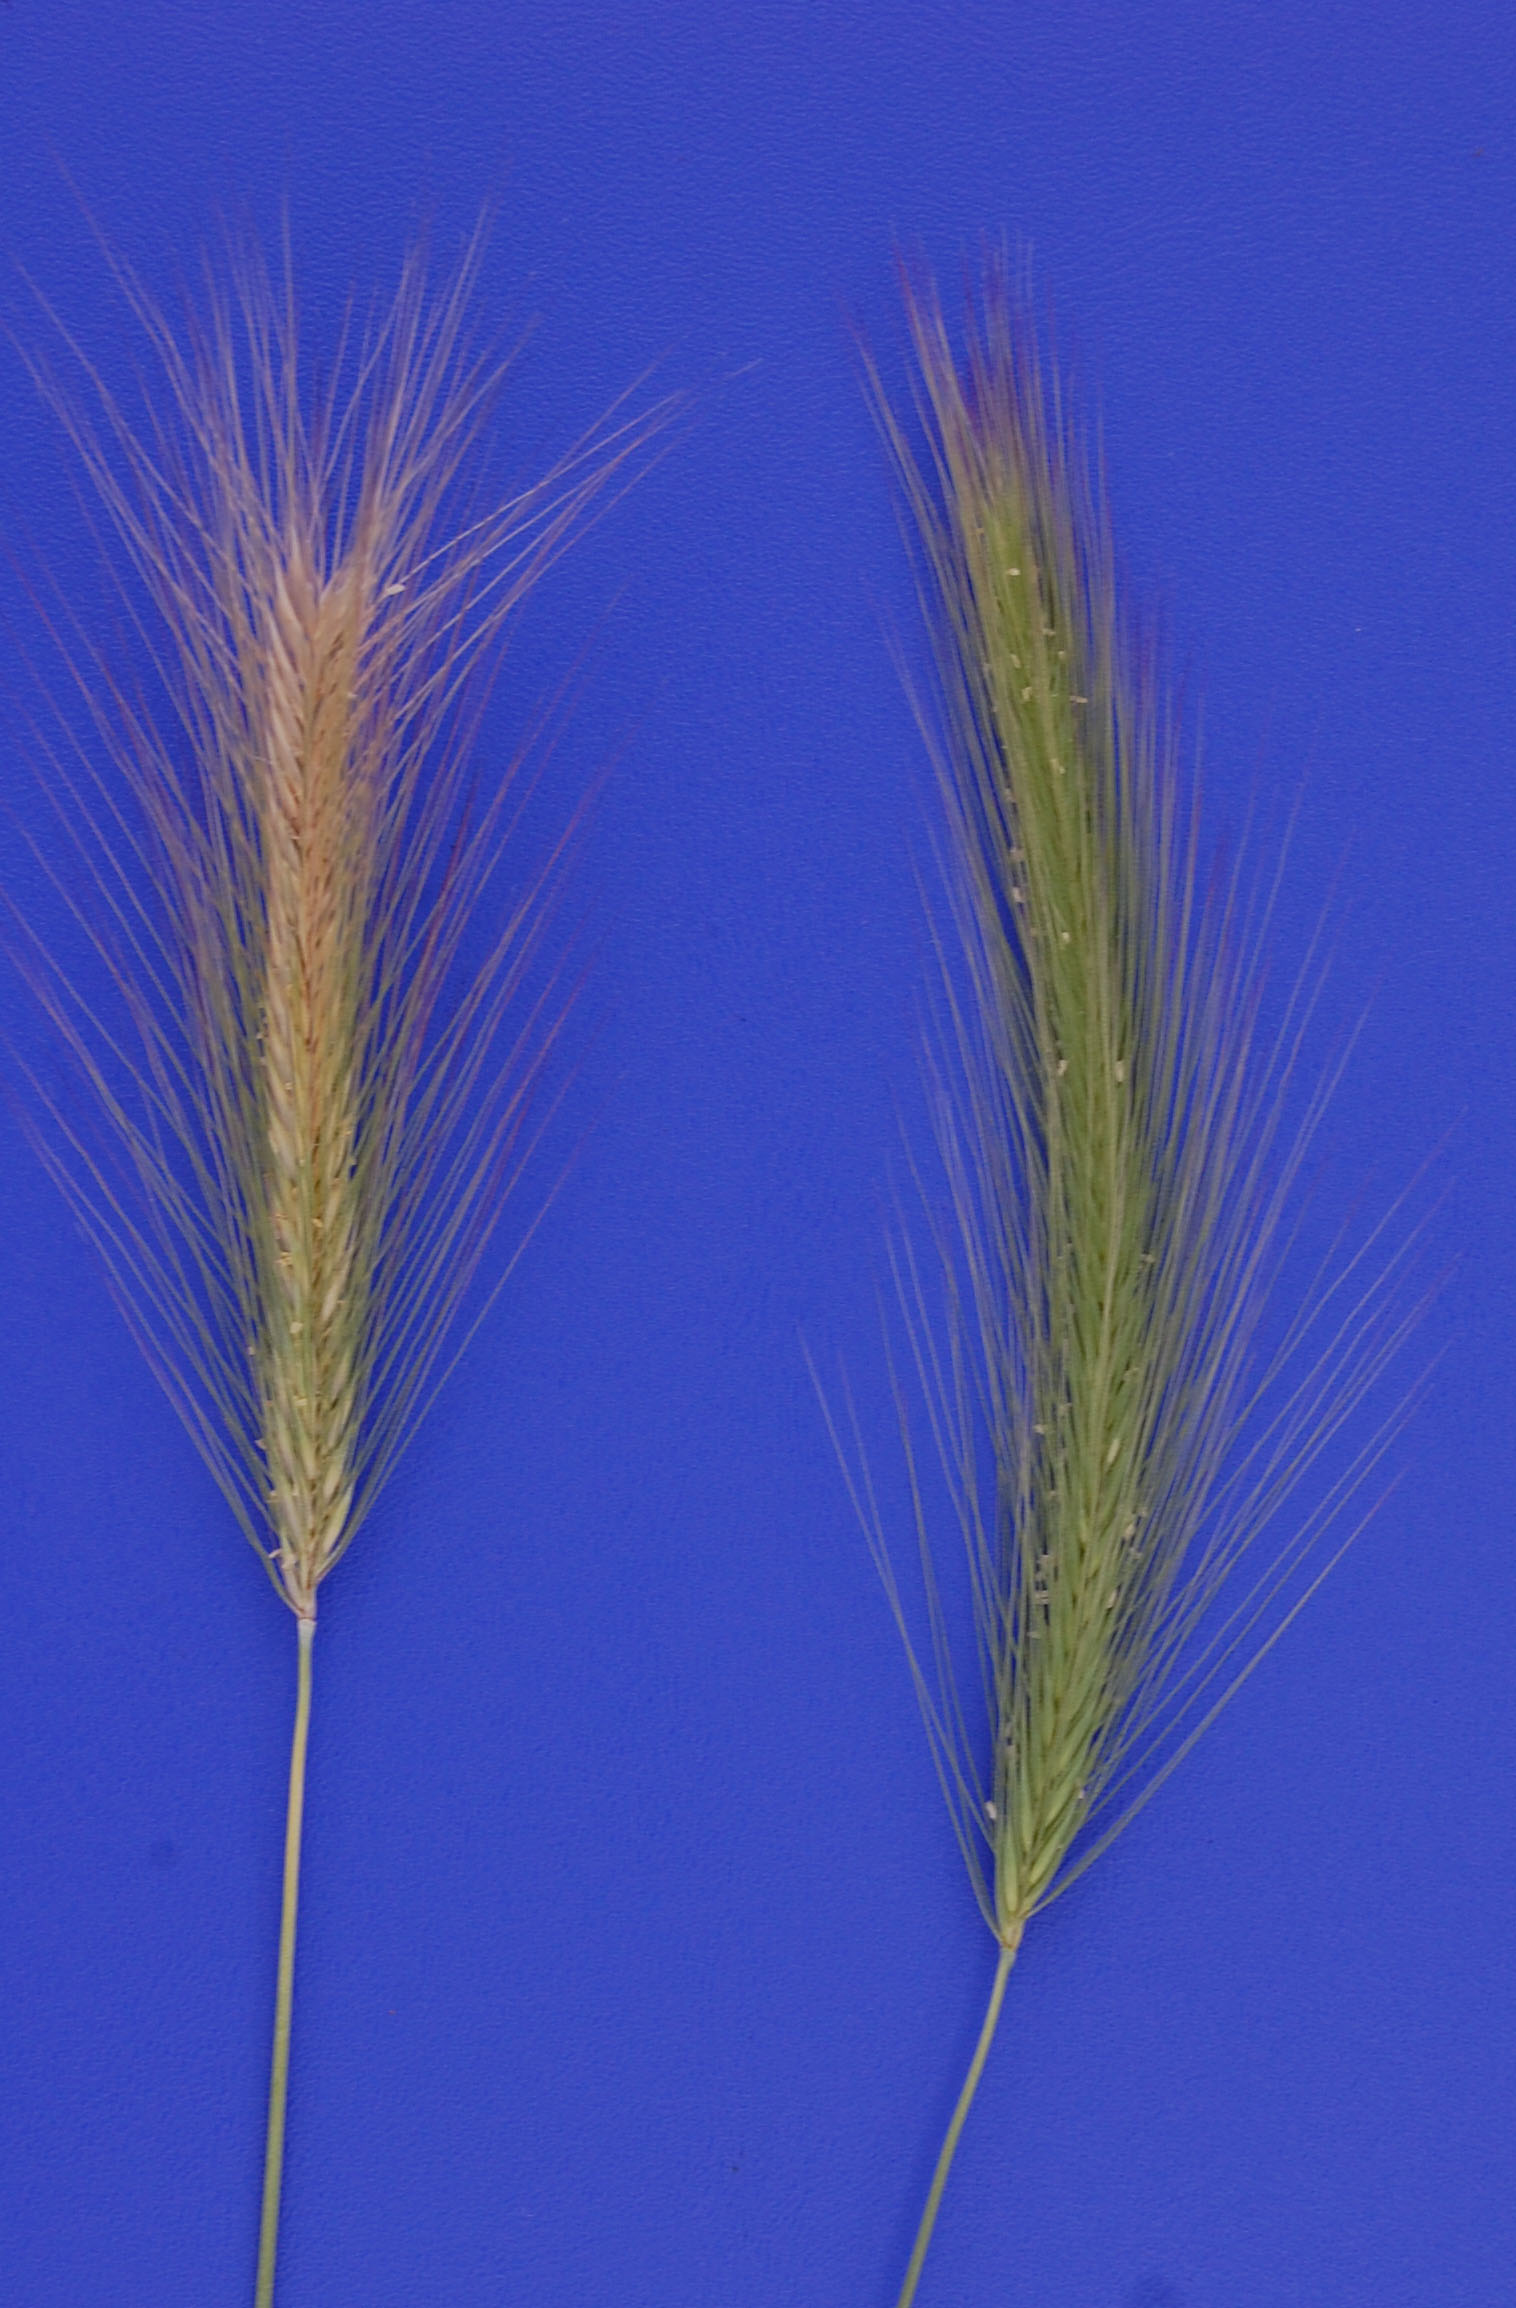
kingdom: Plantae
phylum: Tracheophyta
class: Liliopsida
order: Poales
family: Poaceae
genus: Hordeum
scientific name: Hordeum lechleri
